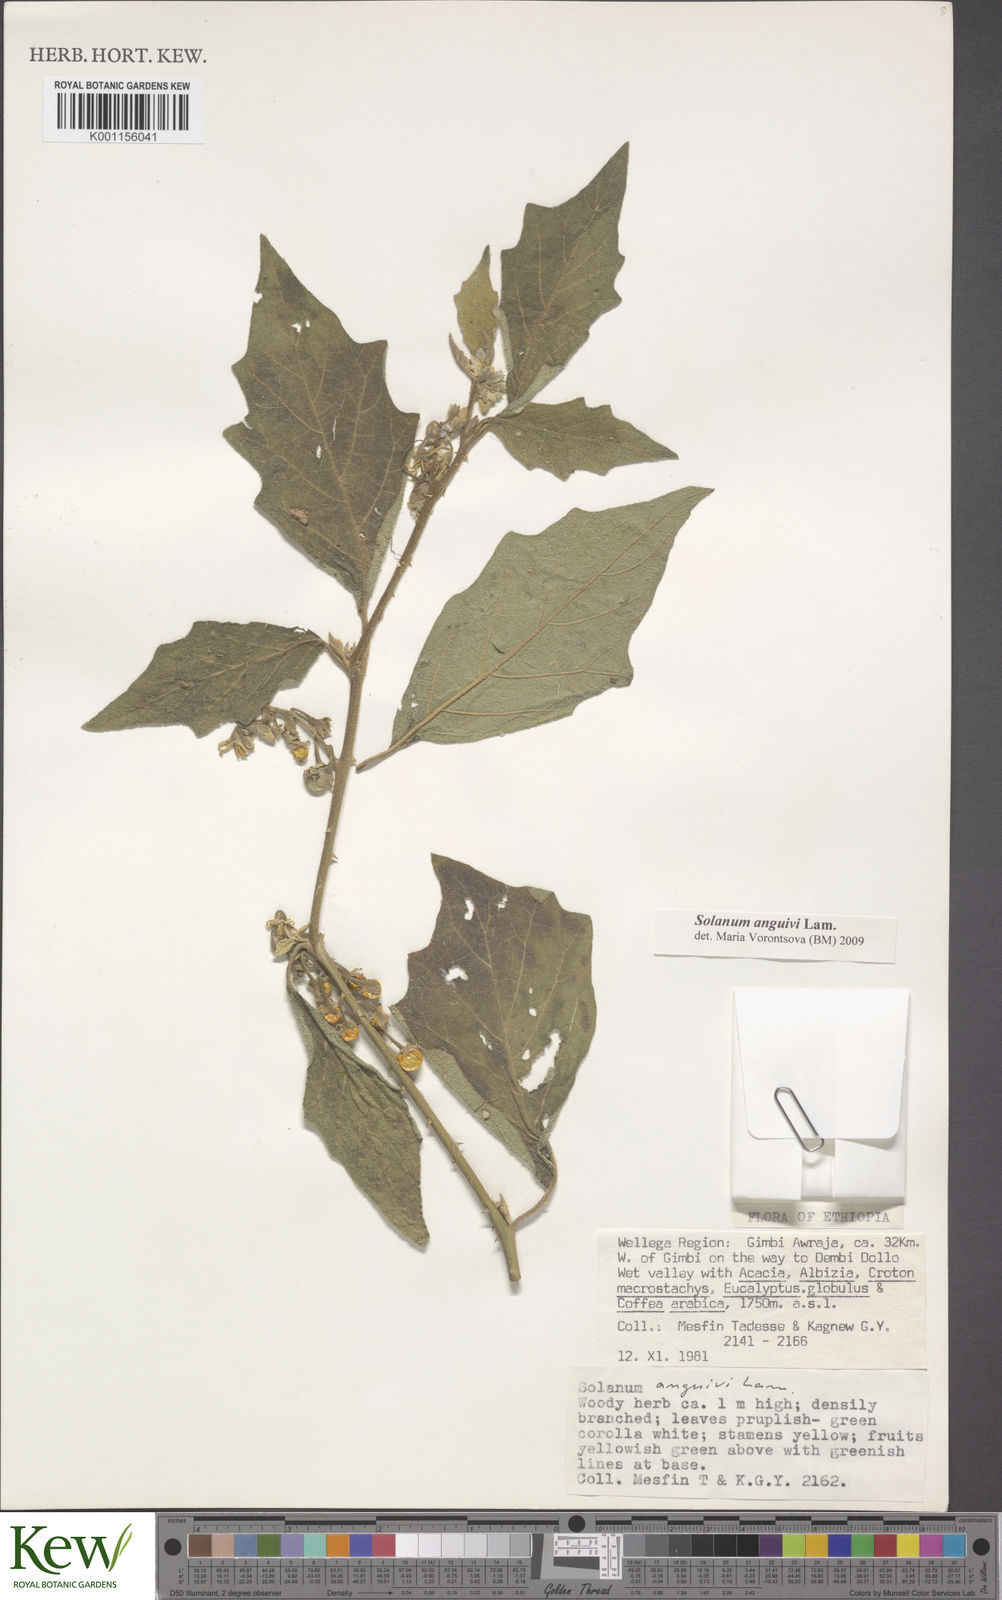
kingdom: Plantae
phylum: Tracheophyta
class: Magnoliopsida
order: Solanales
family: Solanaceae
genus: Solanum
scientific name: Solanum anguivi
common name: Forest bitterberry
